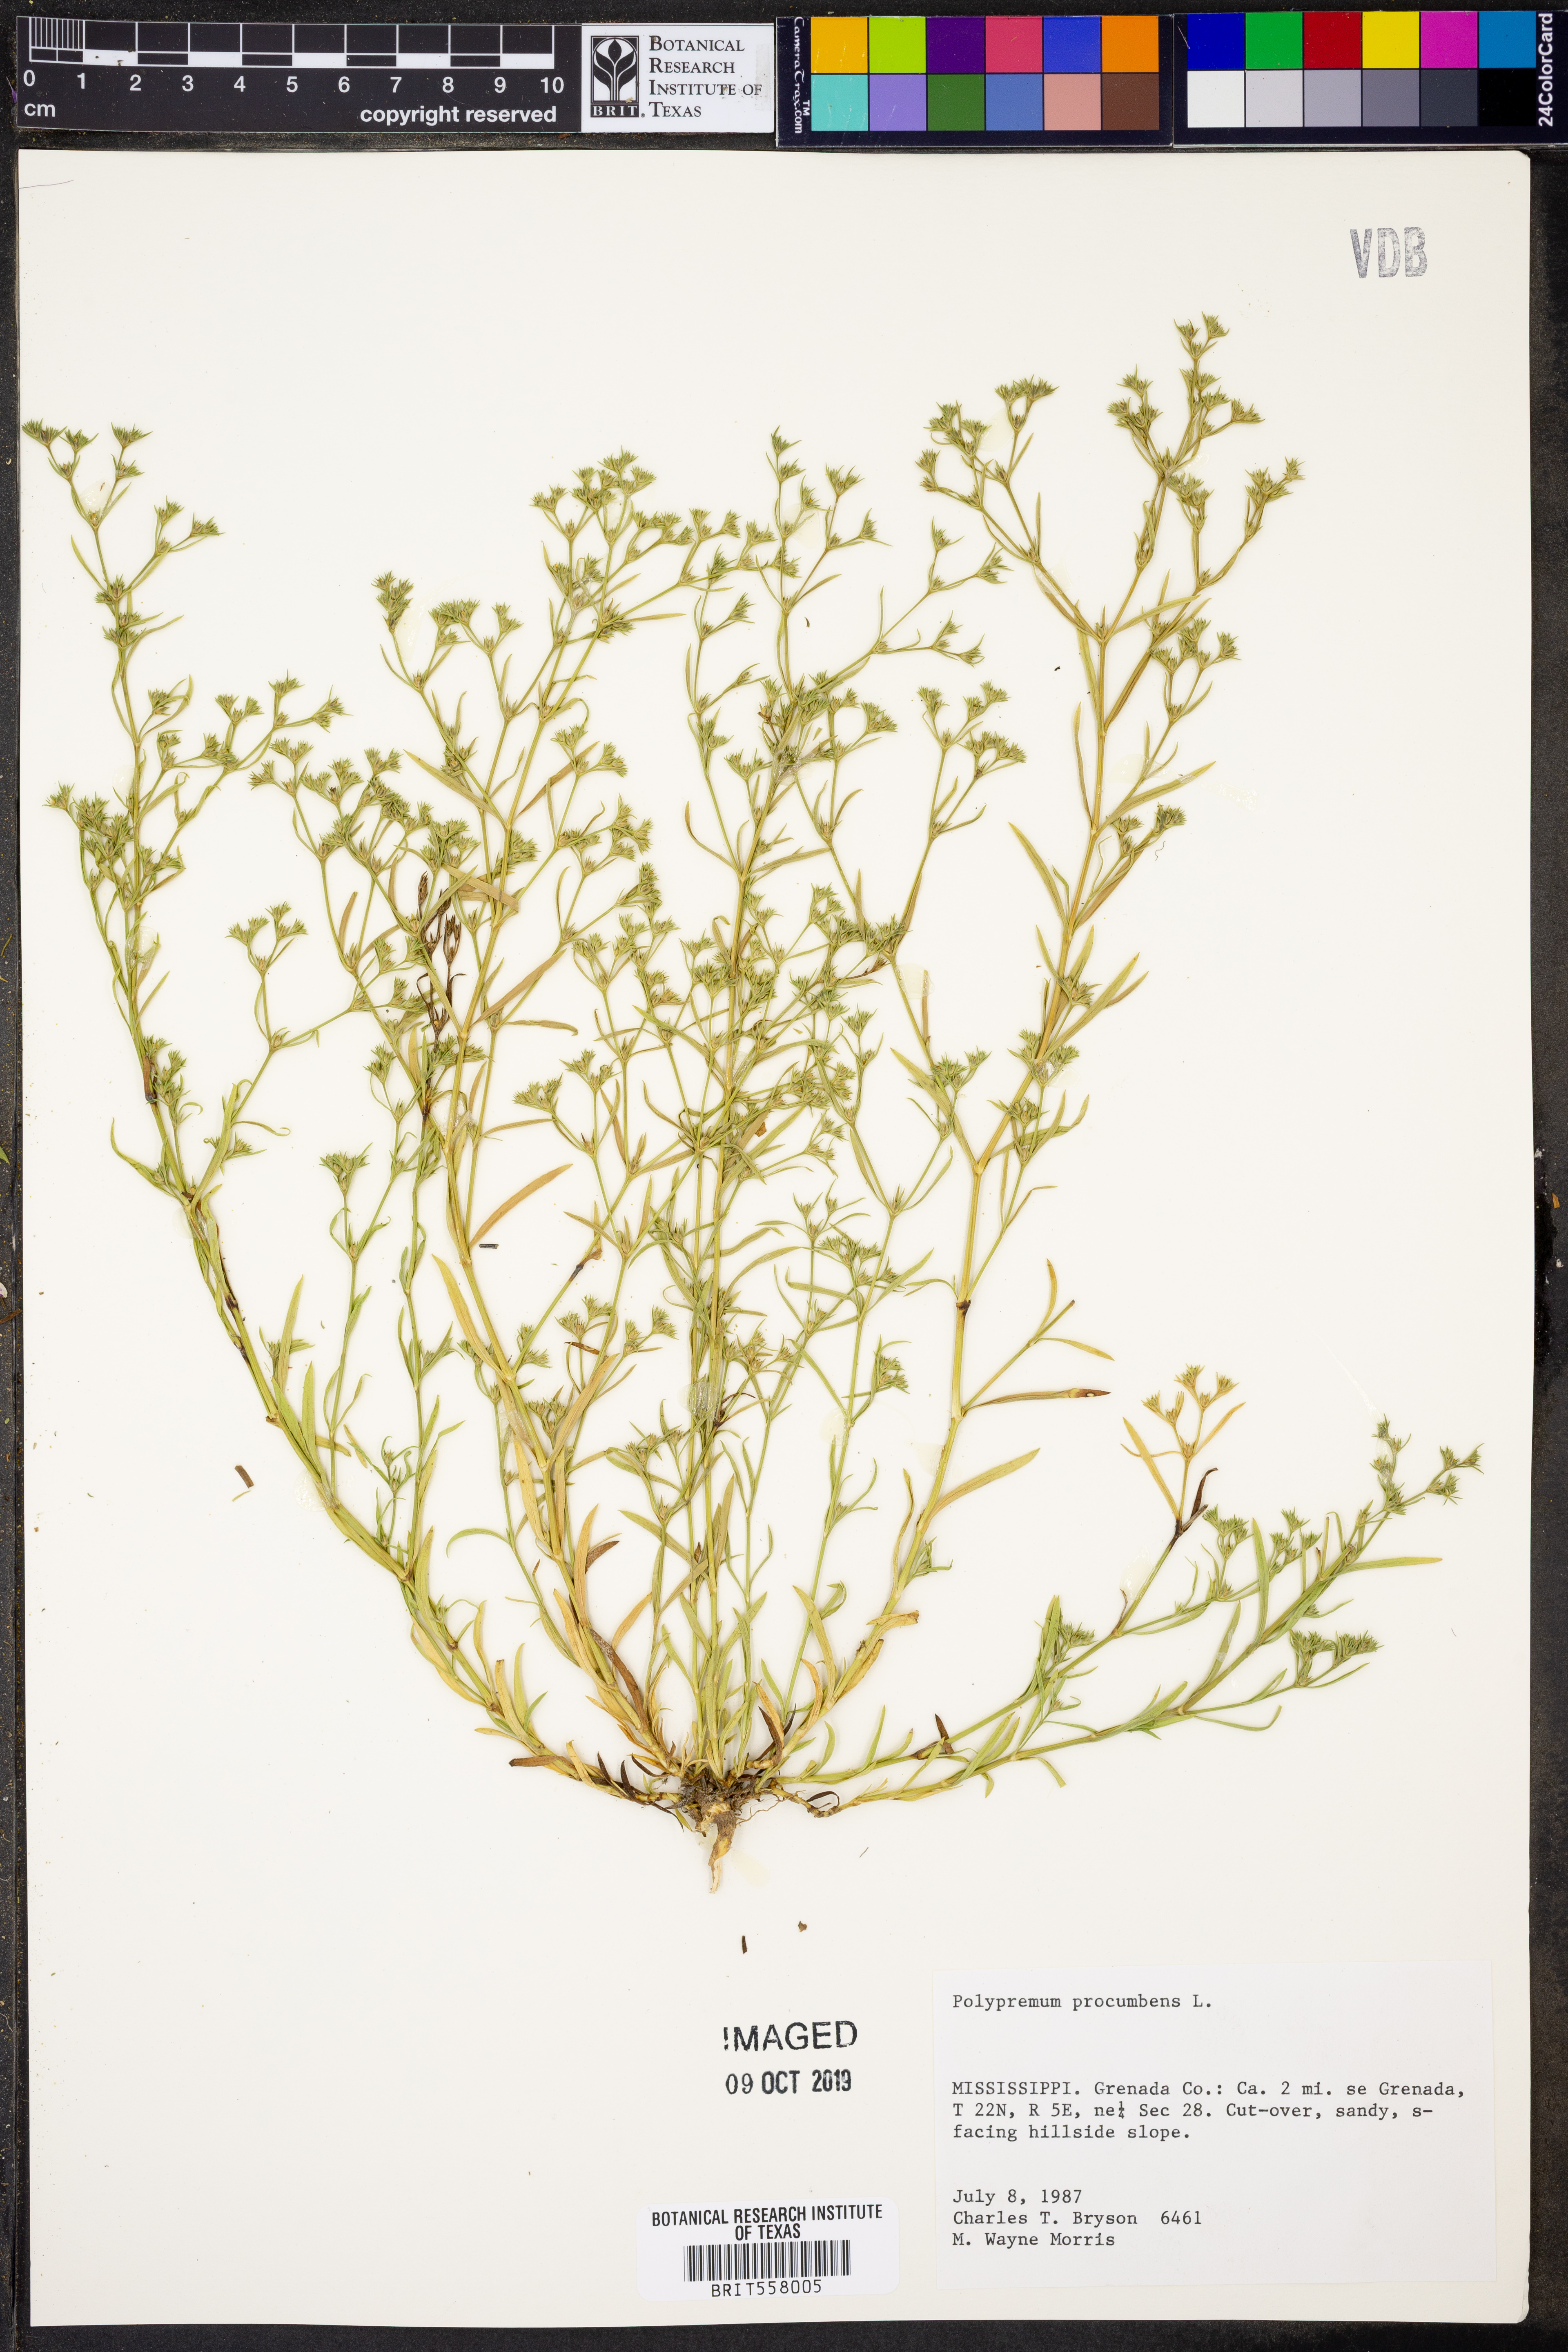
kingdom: Plantae
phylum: Tracheophyta
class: Magnoliopsida
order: Lamiales
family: Tetrachondraceae
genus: Polypremum
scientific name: Polypremum procumbens
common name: Juniper-leaf
